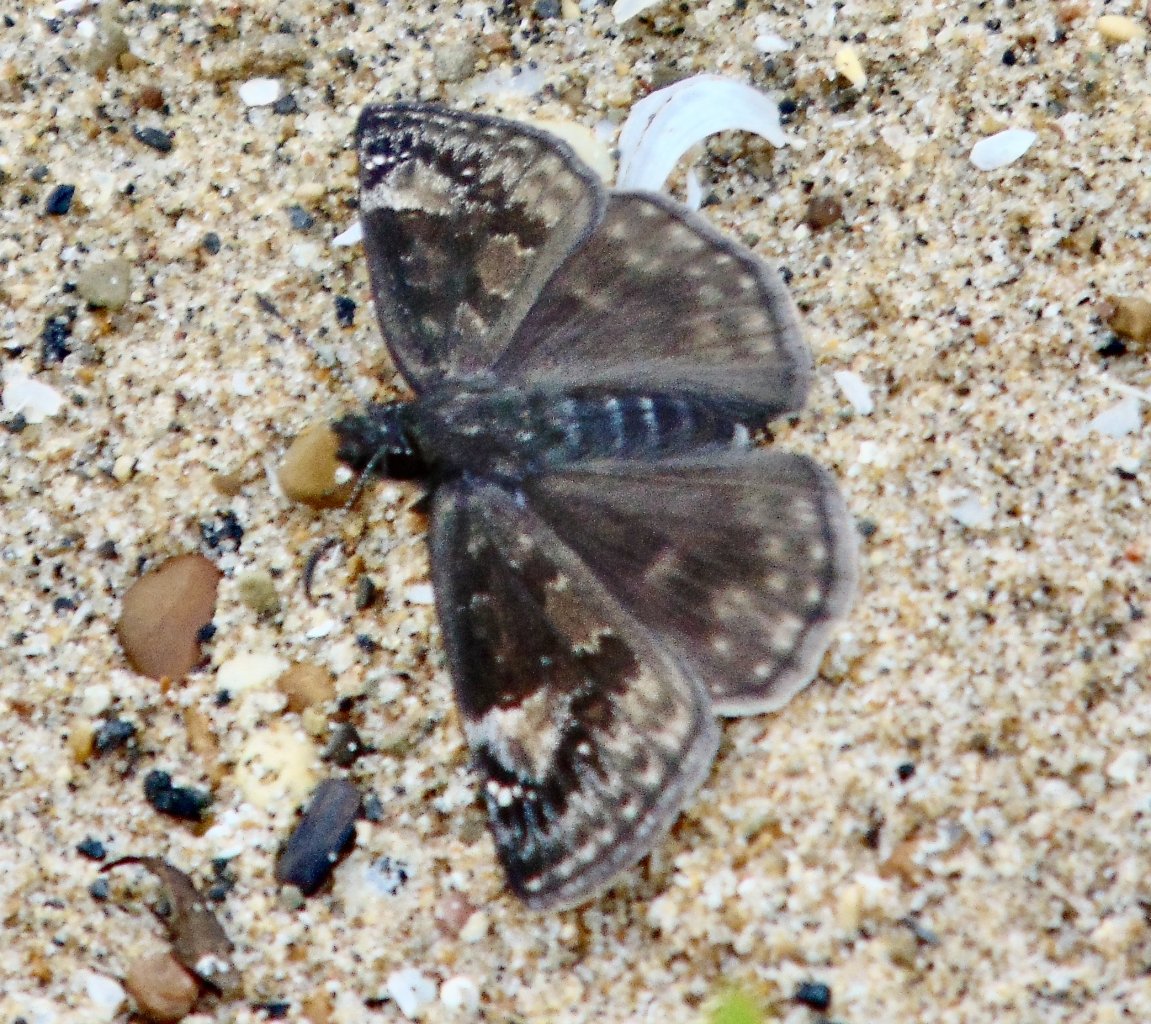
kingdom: Animalia
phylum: Arthropoda
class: Insecta
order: Lepidoptera
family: Hesperiidae
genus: Gesta
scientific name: Gesta
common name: Wild Indigo Duskywing
